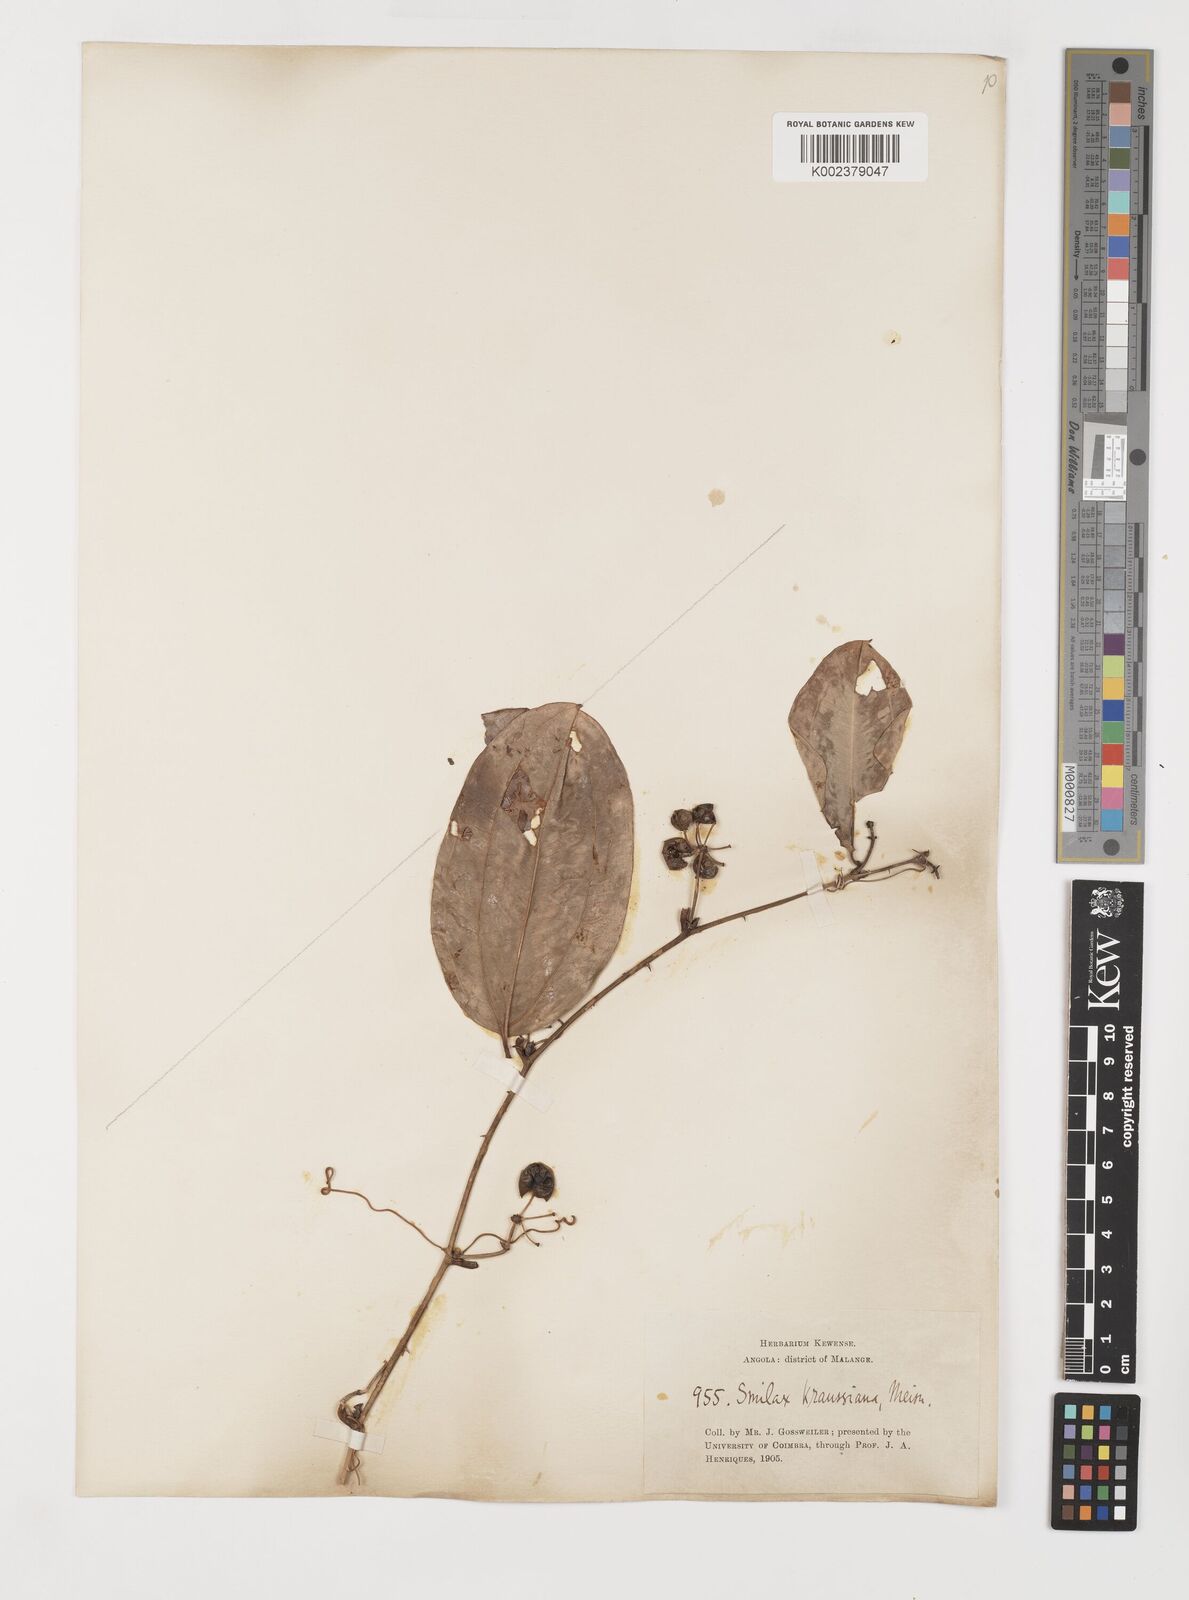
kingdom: Plantae
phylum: Tracheophyta
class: Liliopsida
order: Liliales
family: Smilacaceae
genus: Smilax
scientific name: Smilax anceps
